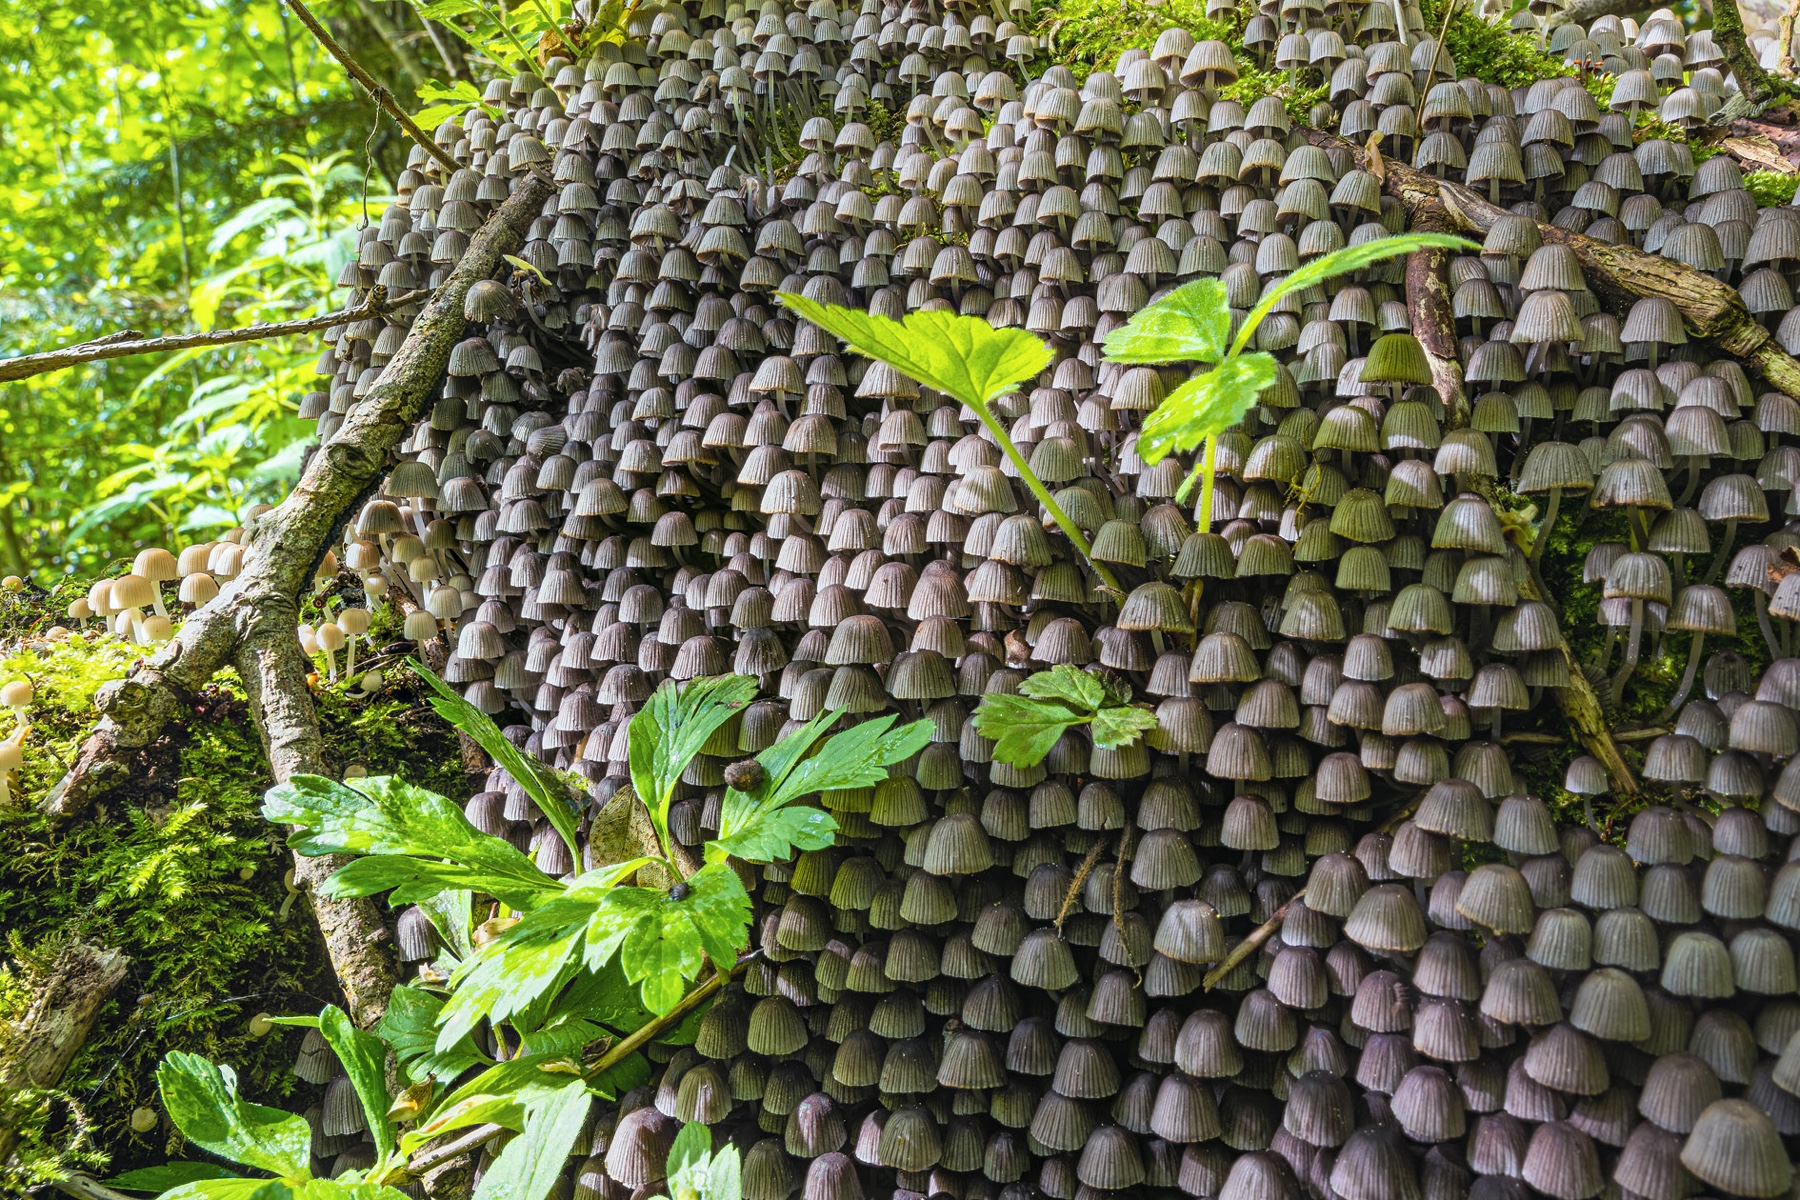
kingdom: Fungi
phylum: Basidiomycota
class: Agaricomycetes
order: Agaricales
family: Psathyrellaceae
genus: Coprinellus
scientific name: Coprinellus disseminatus
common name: bredsået blækhat
